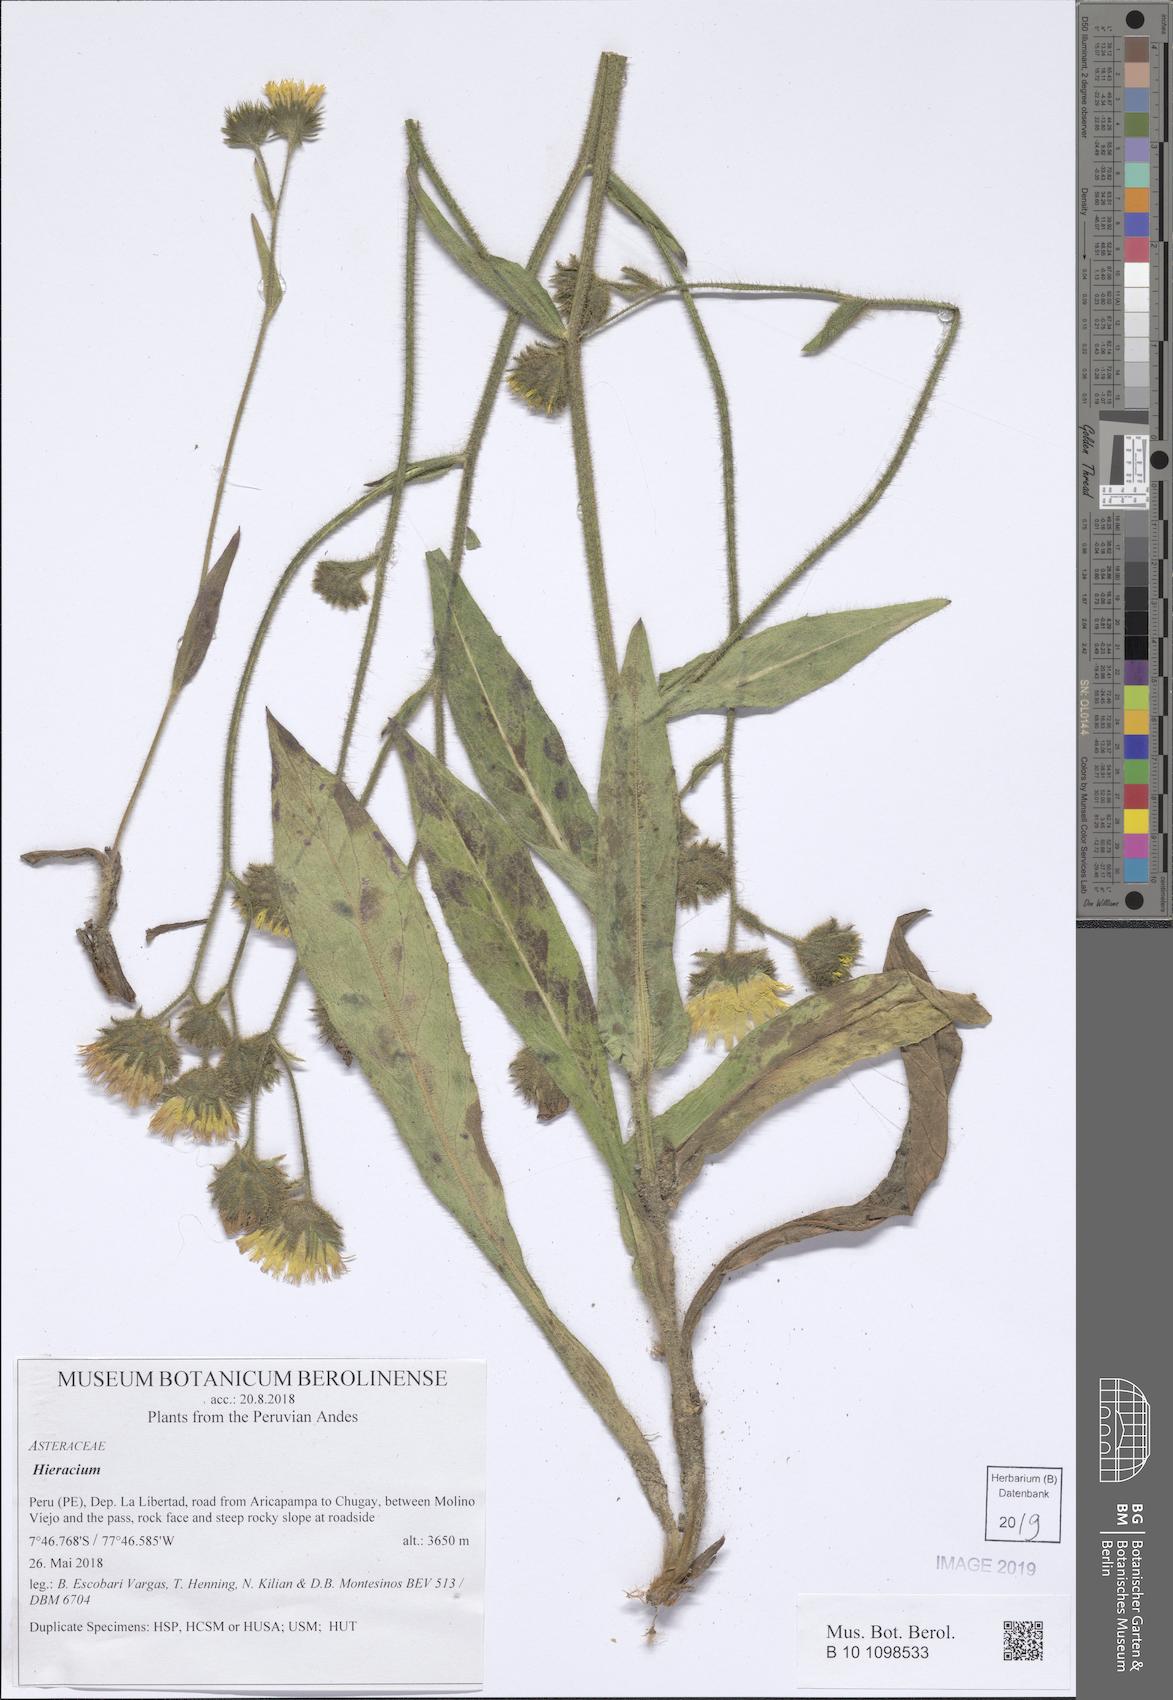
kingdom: Plantae
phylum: Tracheophyta
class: Magnoliopsida
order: Asterales
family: Asteraceae
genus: Hieracium
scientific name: Hieracium
